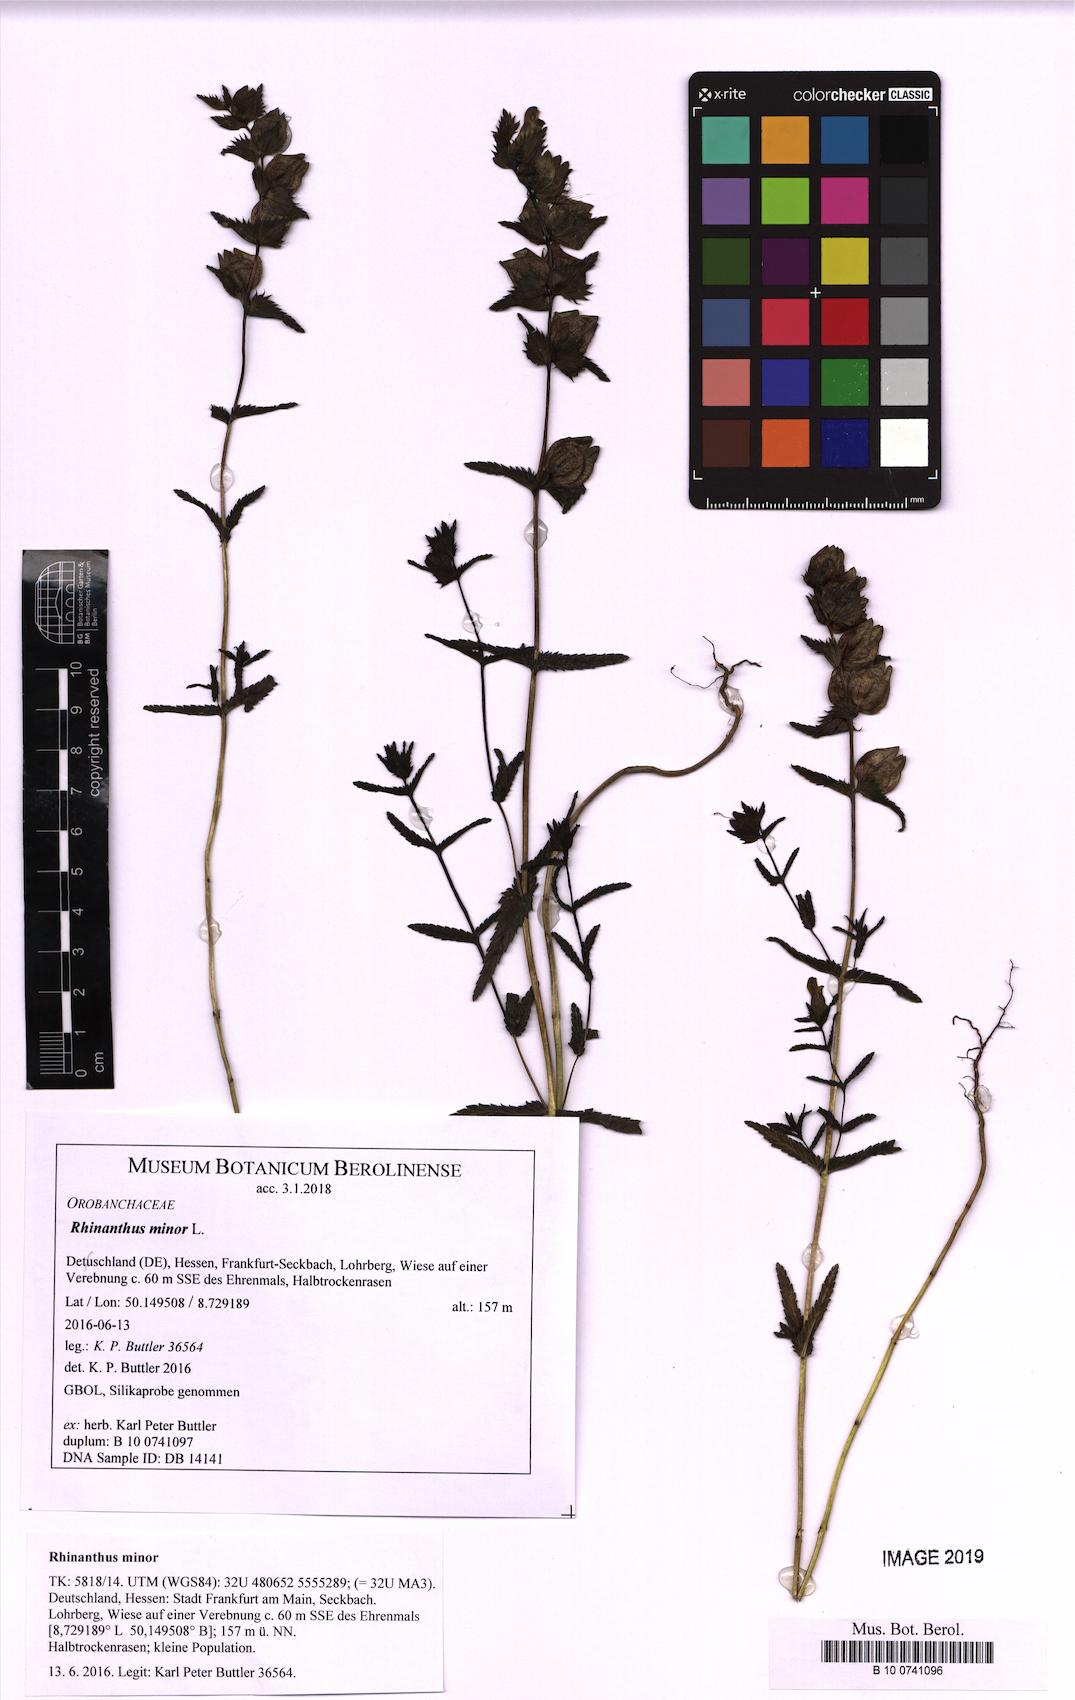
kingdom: Plantae
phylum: Tracheophyta
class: Magnoliopsida
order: Lamiales
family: Orobanchaceae
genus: Rhinanthus
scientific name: Rhinanthus minor
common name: Yellow-rattle
